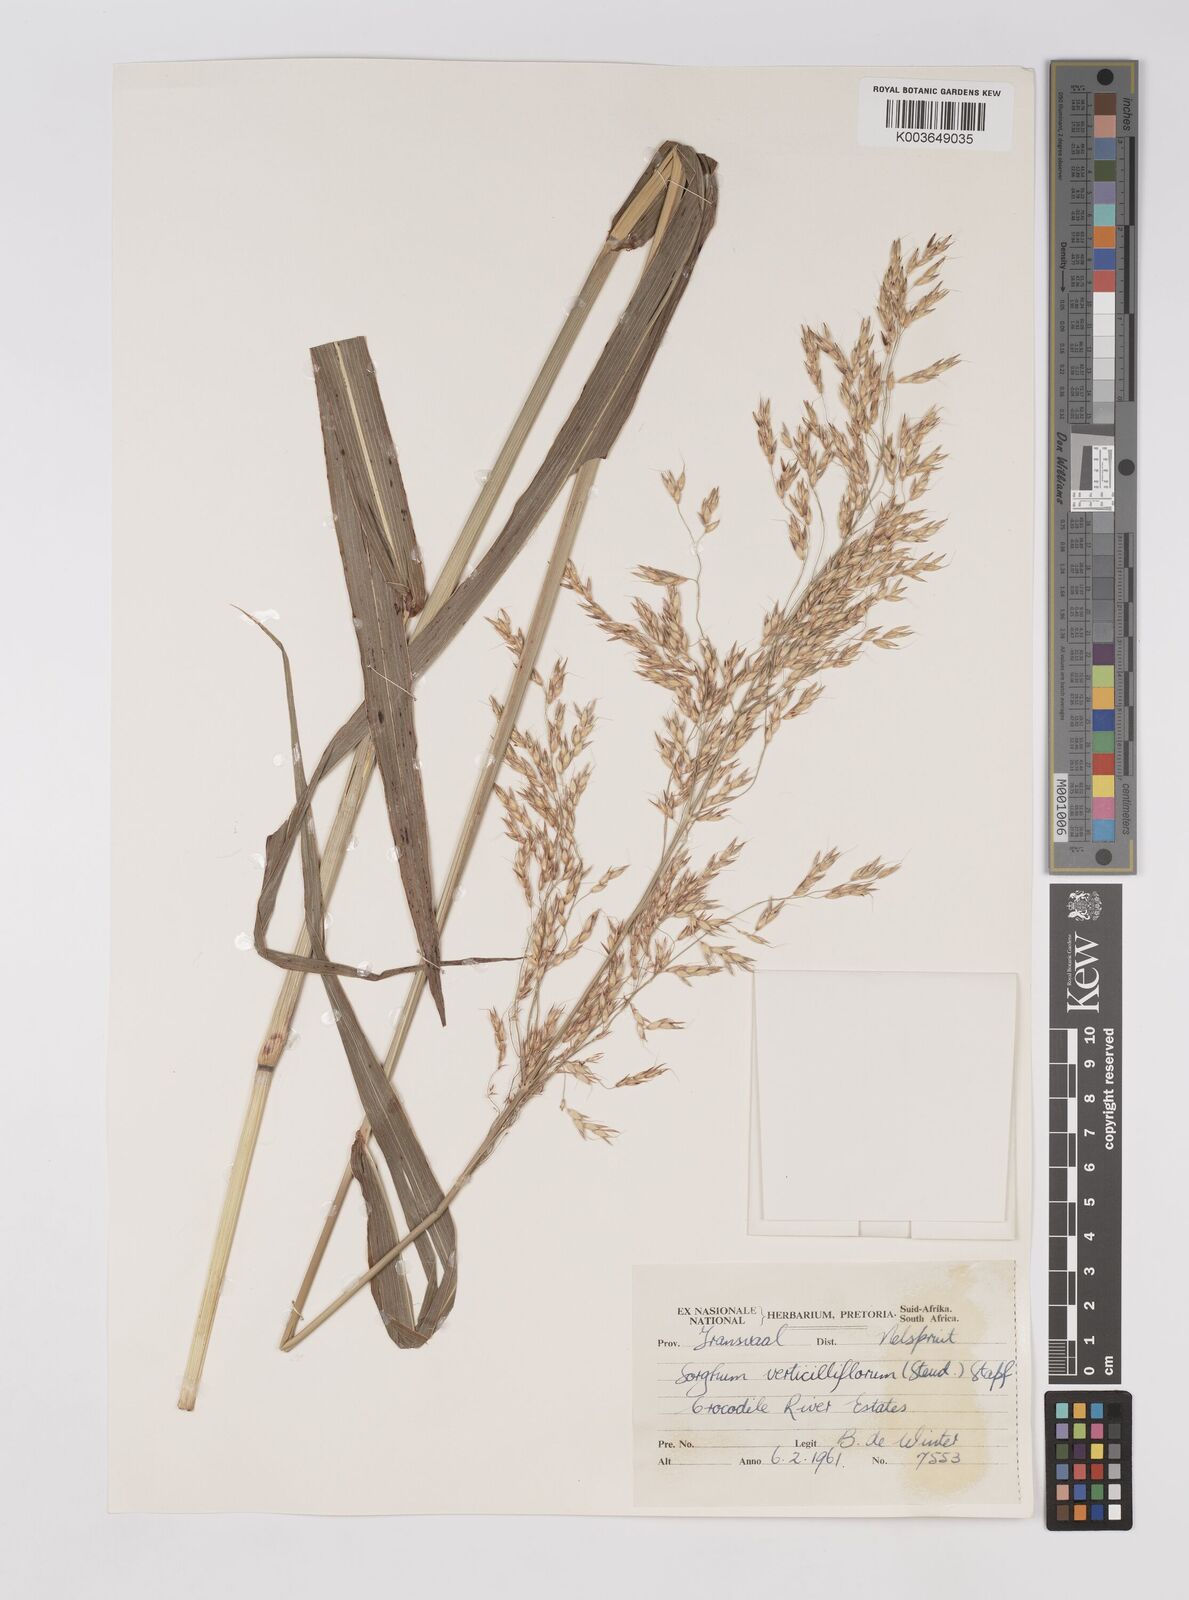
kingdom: Plantae
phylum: Tracheophyta
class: Liliopsida
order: Poales
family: Poaceae
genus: Sorghum
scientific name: Sorghum arundinaceum
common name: Sorghum
